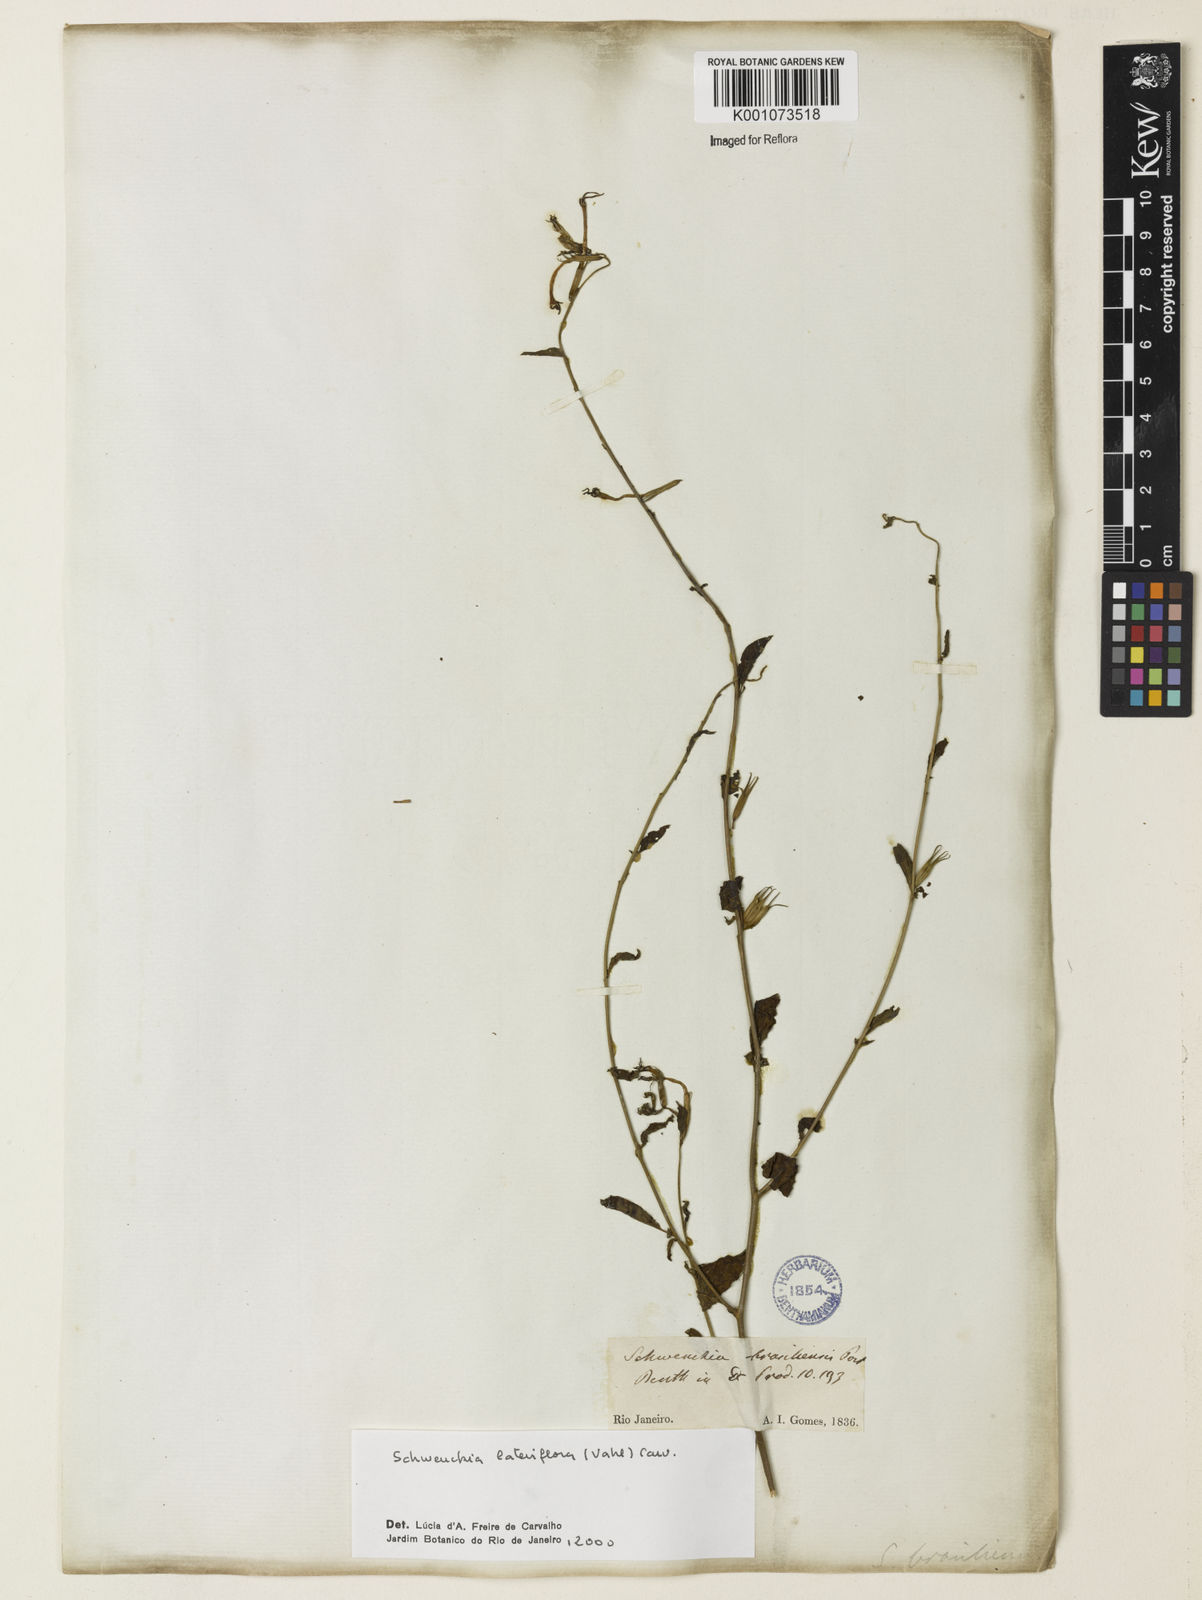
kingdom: Plantae
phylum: Tracheophyta
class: Magnoliopsida
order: Solanales
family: Solanaceae
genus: Schwenckia
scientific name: Schwenckia lateriflora
